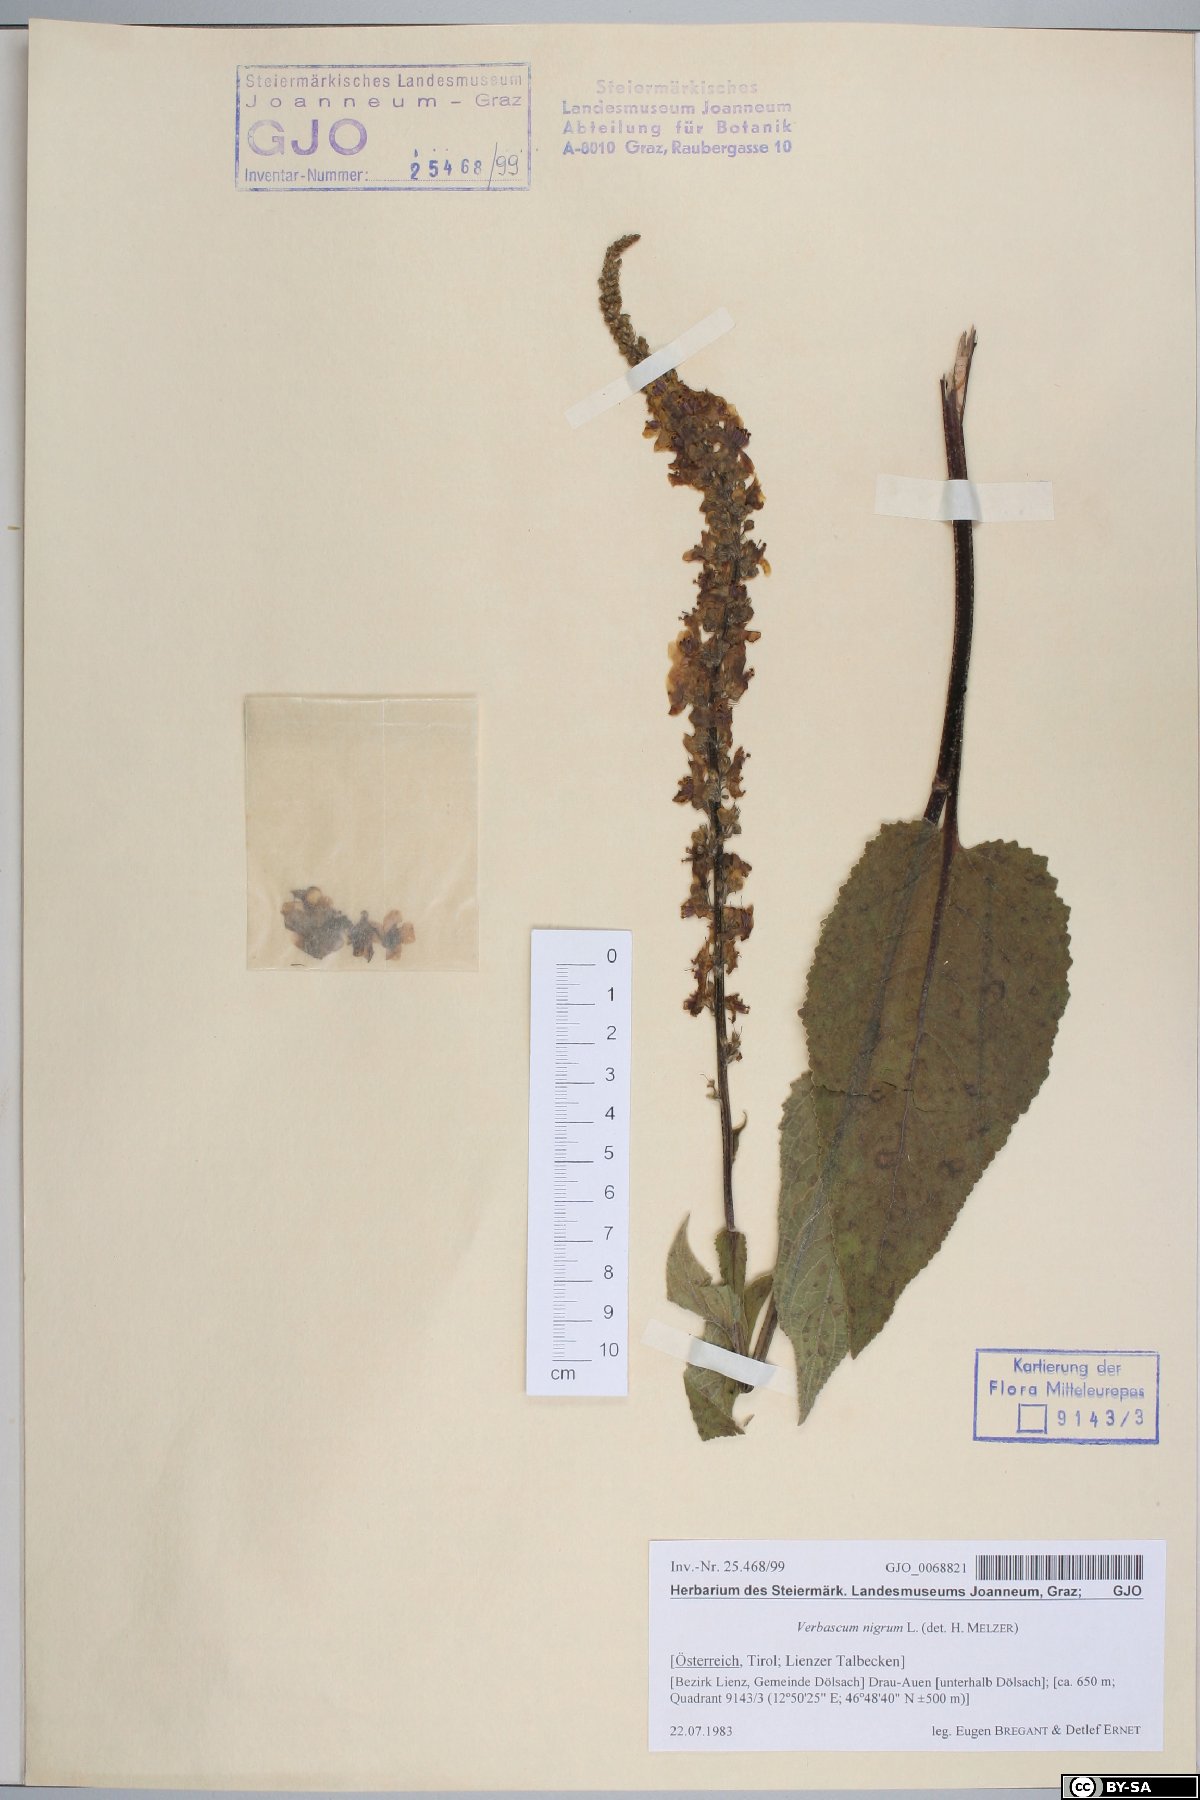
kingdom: Plantae
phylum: Tracheophyta
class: Magnoliopsida
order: Lamiales
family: Scrophulariaceae
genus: Verbascum
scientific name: Verbascum nigrum
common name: Dark mullein
